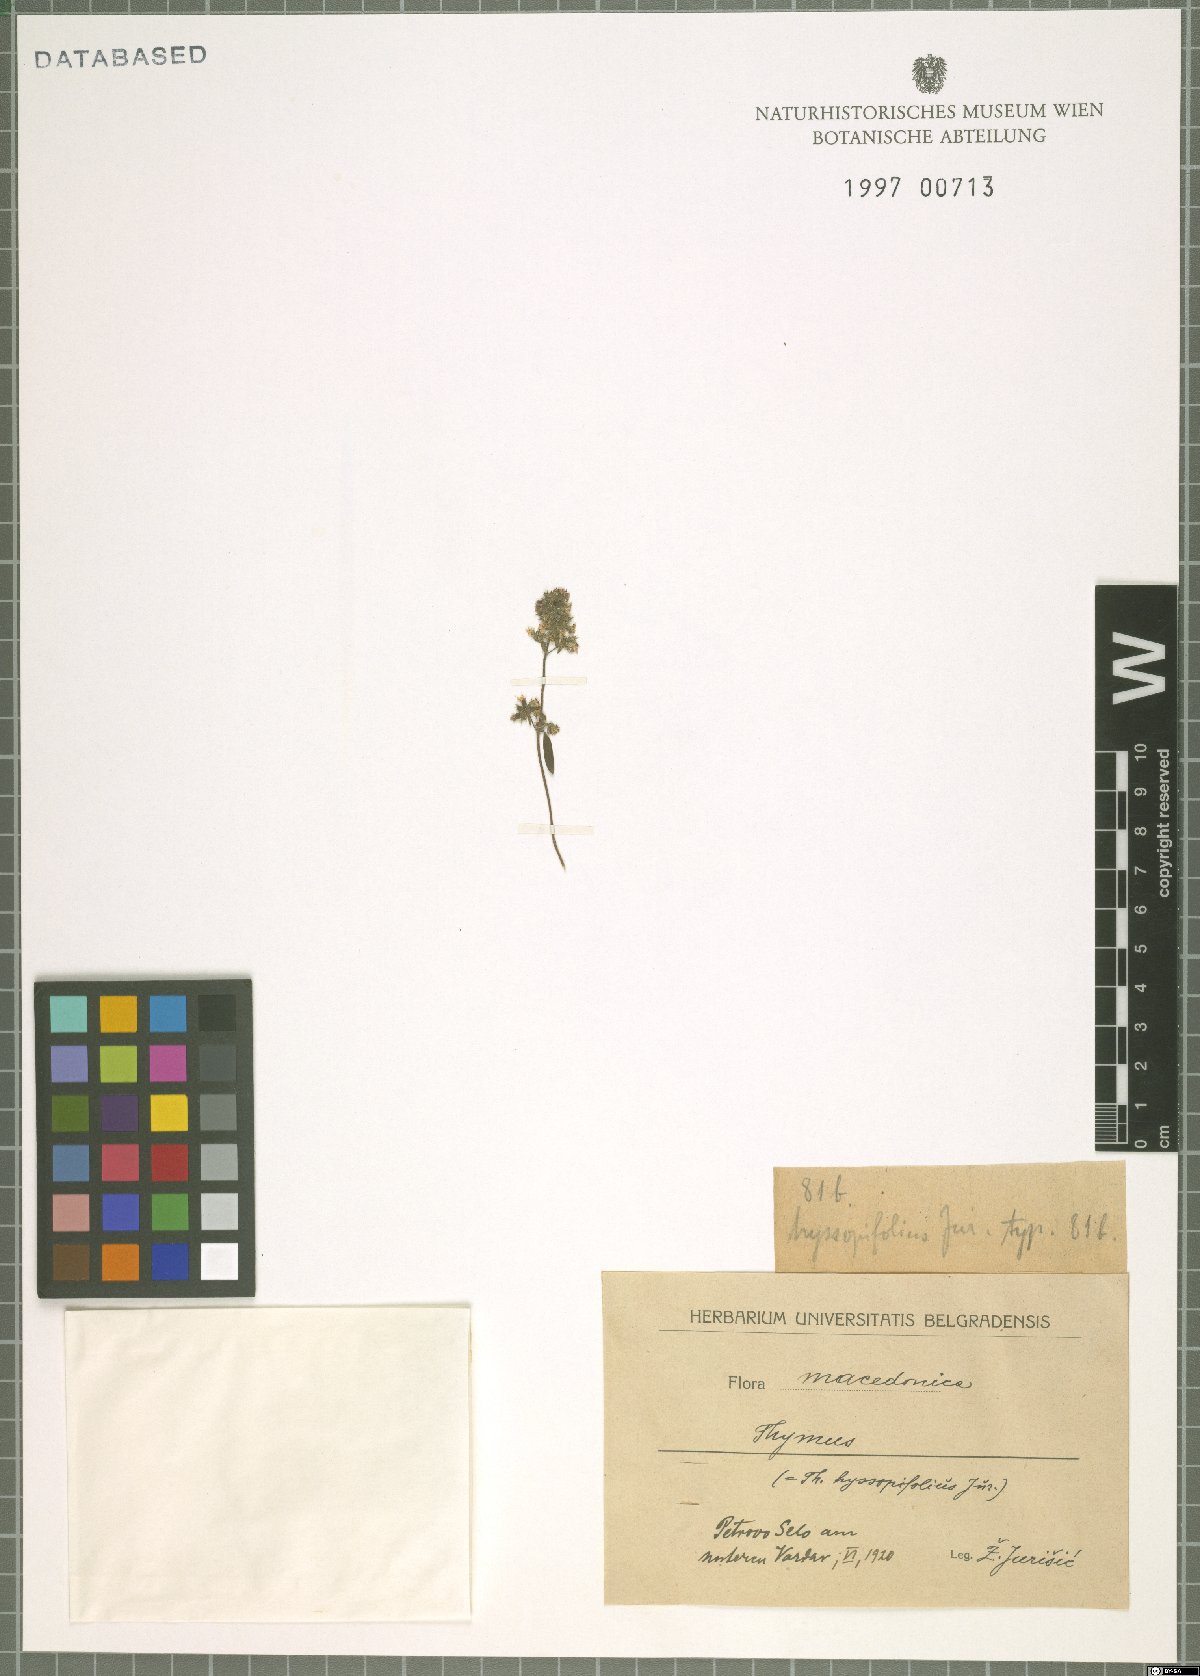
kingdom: Plantae
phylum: Tracheophyta
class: Magnoliopsida
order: Lamiales
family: Lamiaceae
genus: Thymus
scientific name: Thymus
